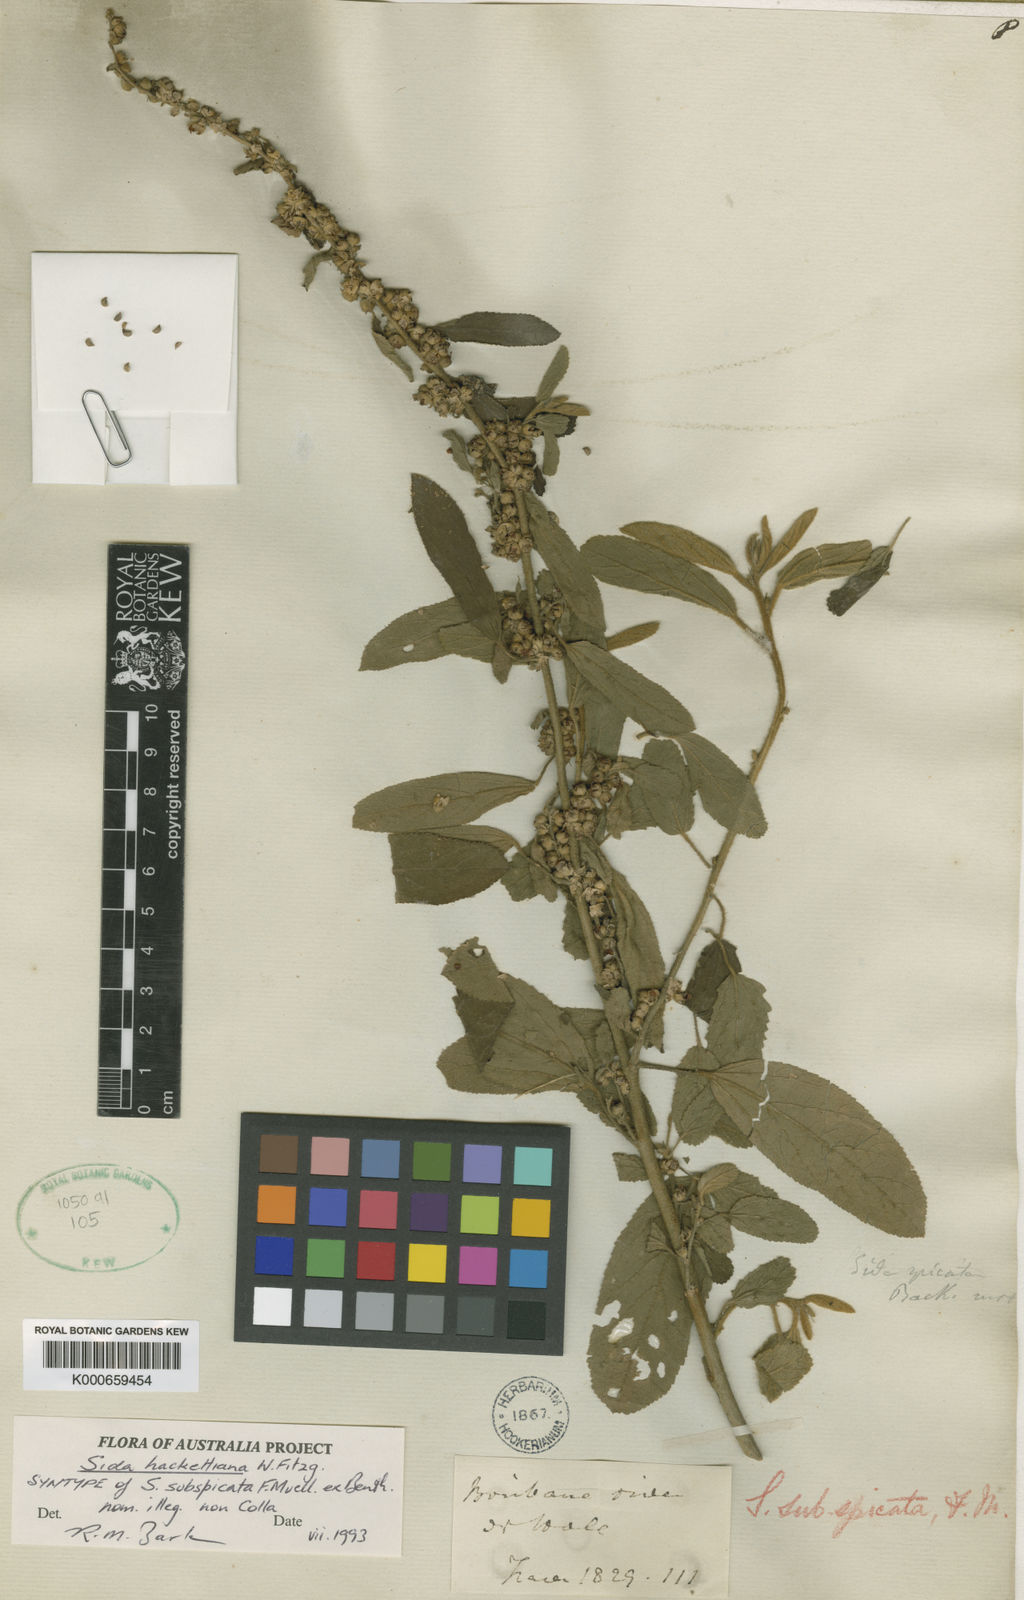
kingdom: Plantae
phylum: Tracheophyta
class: Magnoliopsida
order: Malvales
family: Malvaceae
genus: Sida
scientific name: Sida hackettiana
